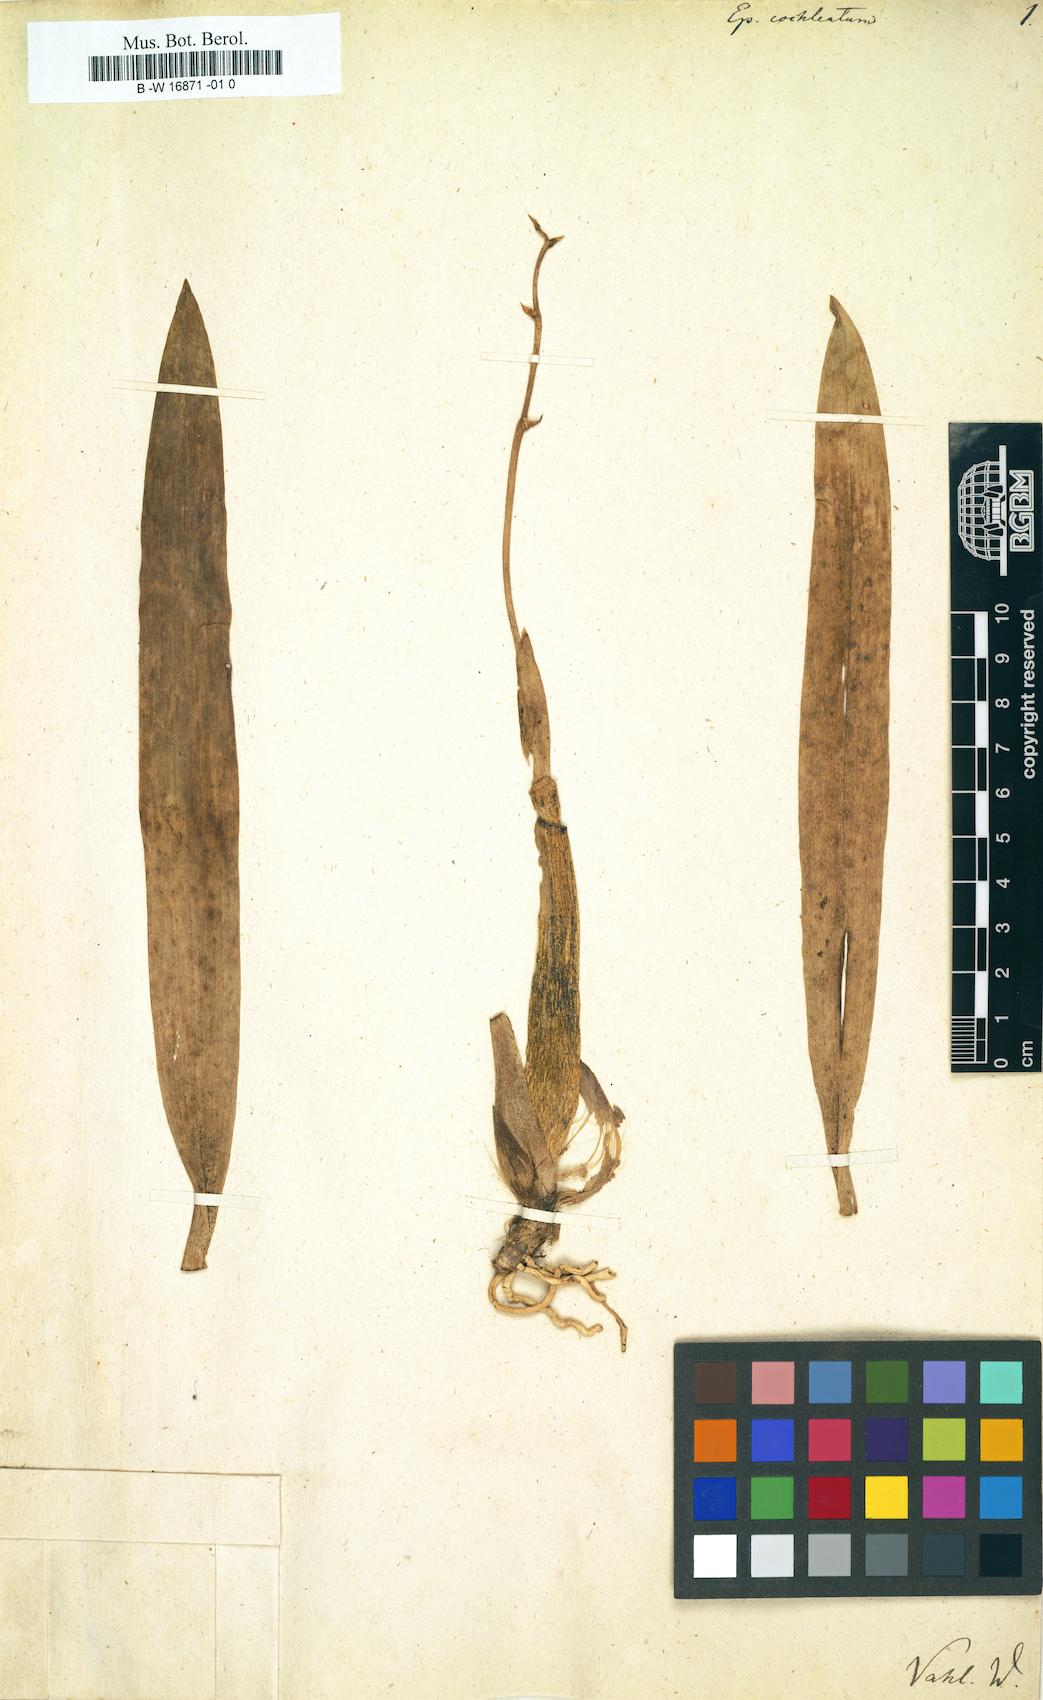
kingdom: Plantae
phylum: Tracheophyta
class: Liliopsida
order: Asparagales
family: Orchidaceae
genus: Prosthechea
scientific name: Prosthechea
